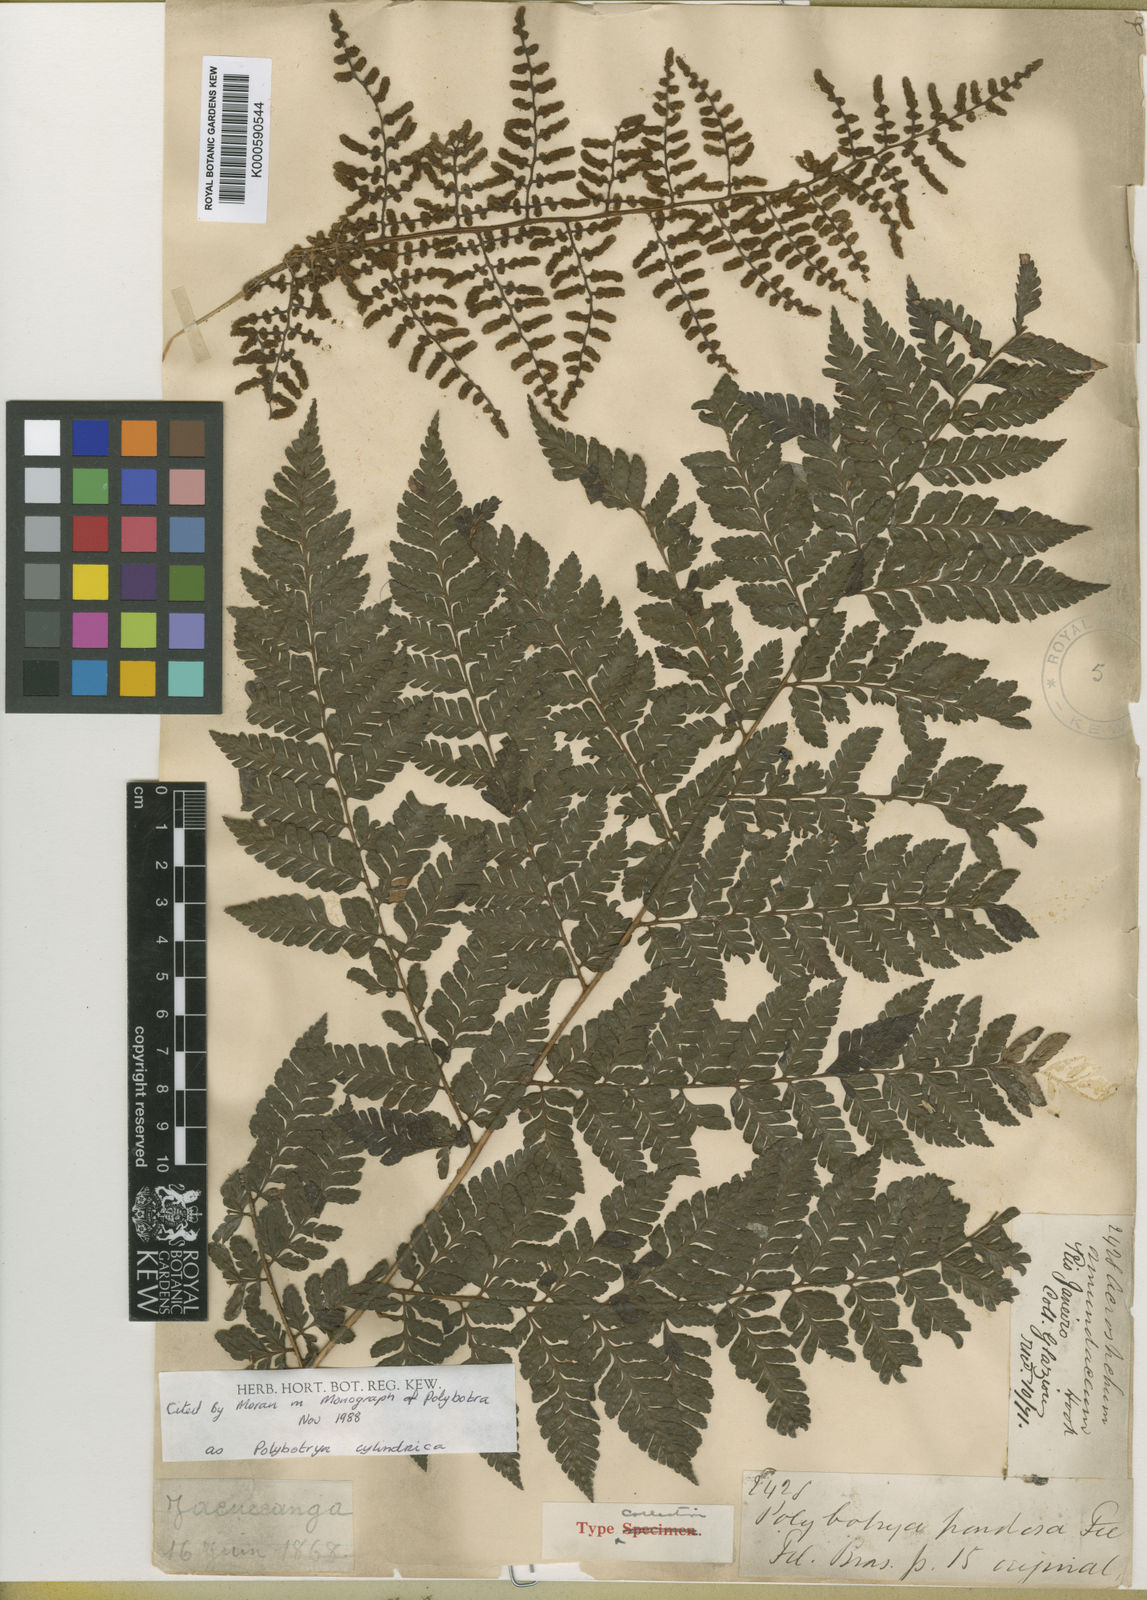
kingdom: Plantae
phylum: Tracheophyta
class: Polypodiopsida
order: Polypodiales
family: Dryopteridaceae
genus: Polybotrya
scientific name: Polybotrya cylindrica
